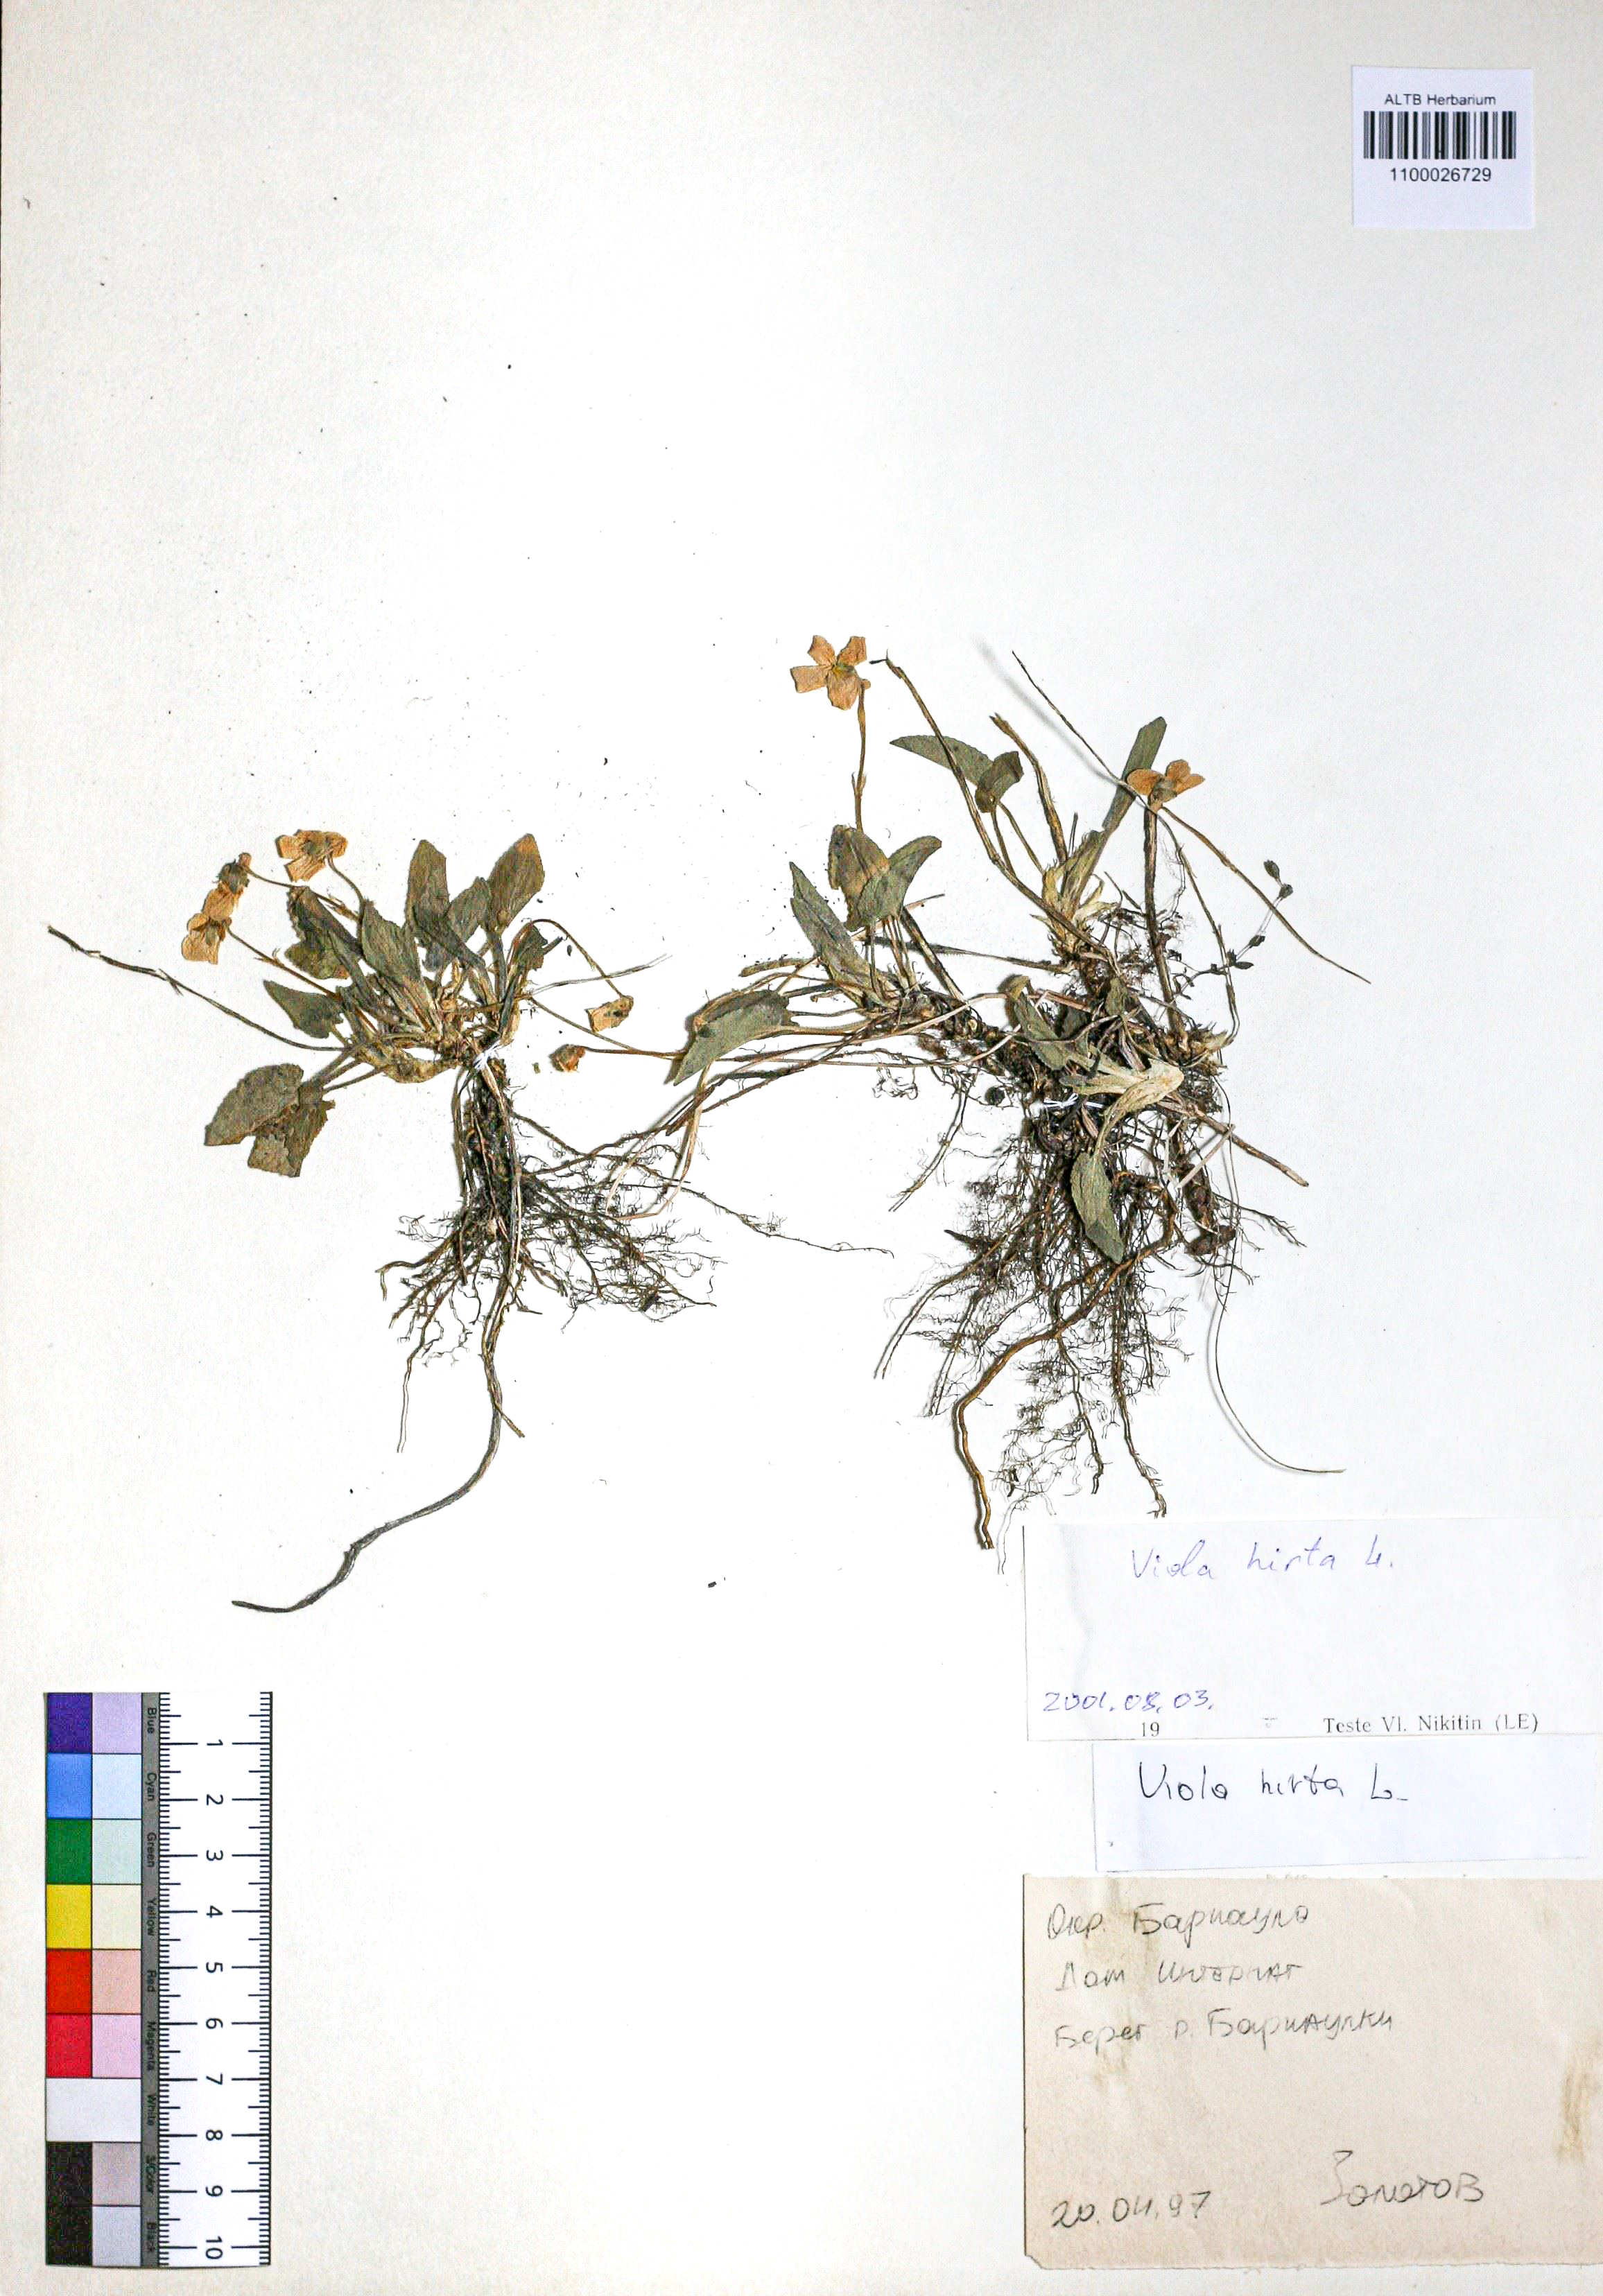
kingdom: Plantae
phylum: Tracheophyta
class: Magnoliopsida
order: Malpighiales
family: Violaceae
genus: Viola
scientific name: Viola hirta
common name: Hairy violet
